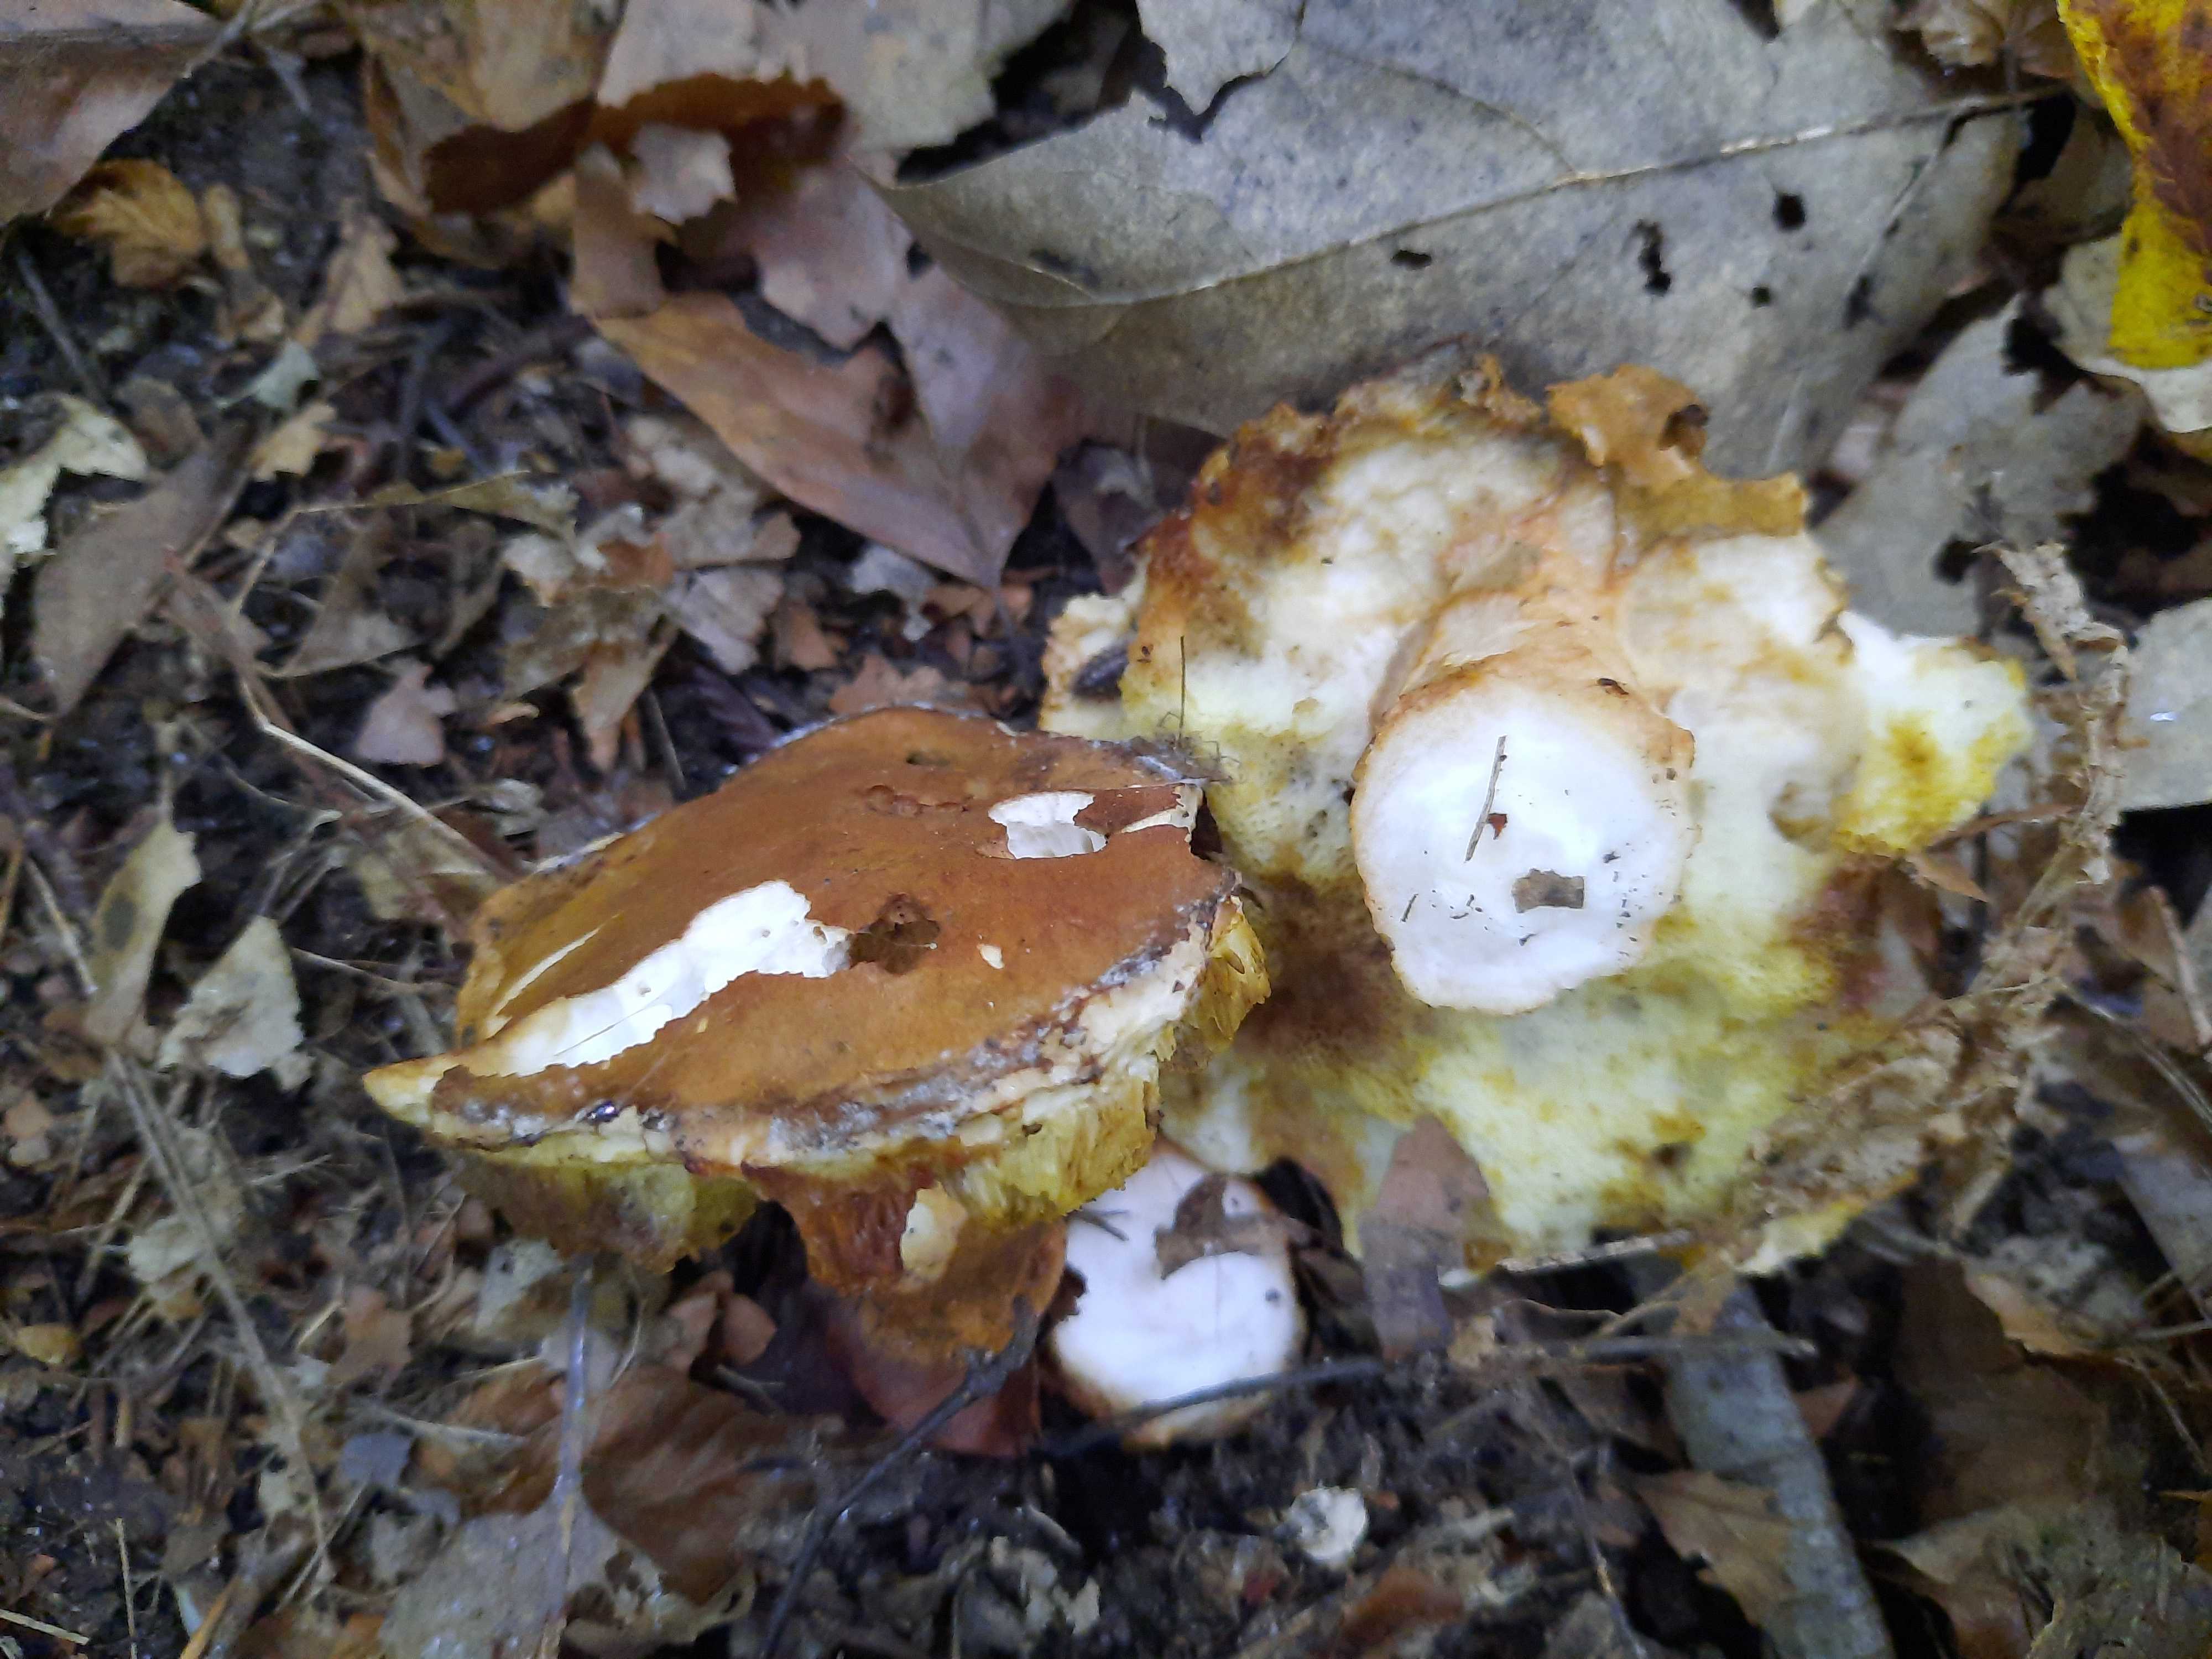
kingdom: Fungi
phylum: Basidiomycota
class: Agaricomycetes
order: Boletales
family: Gyroporaceae
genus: Gyroporus
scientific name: Gyroporus castaneus
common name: kastanie-kammerrørhat
